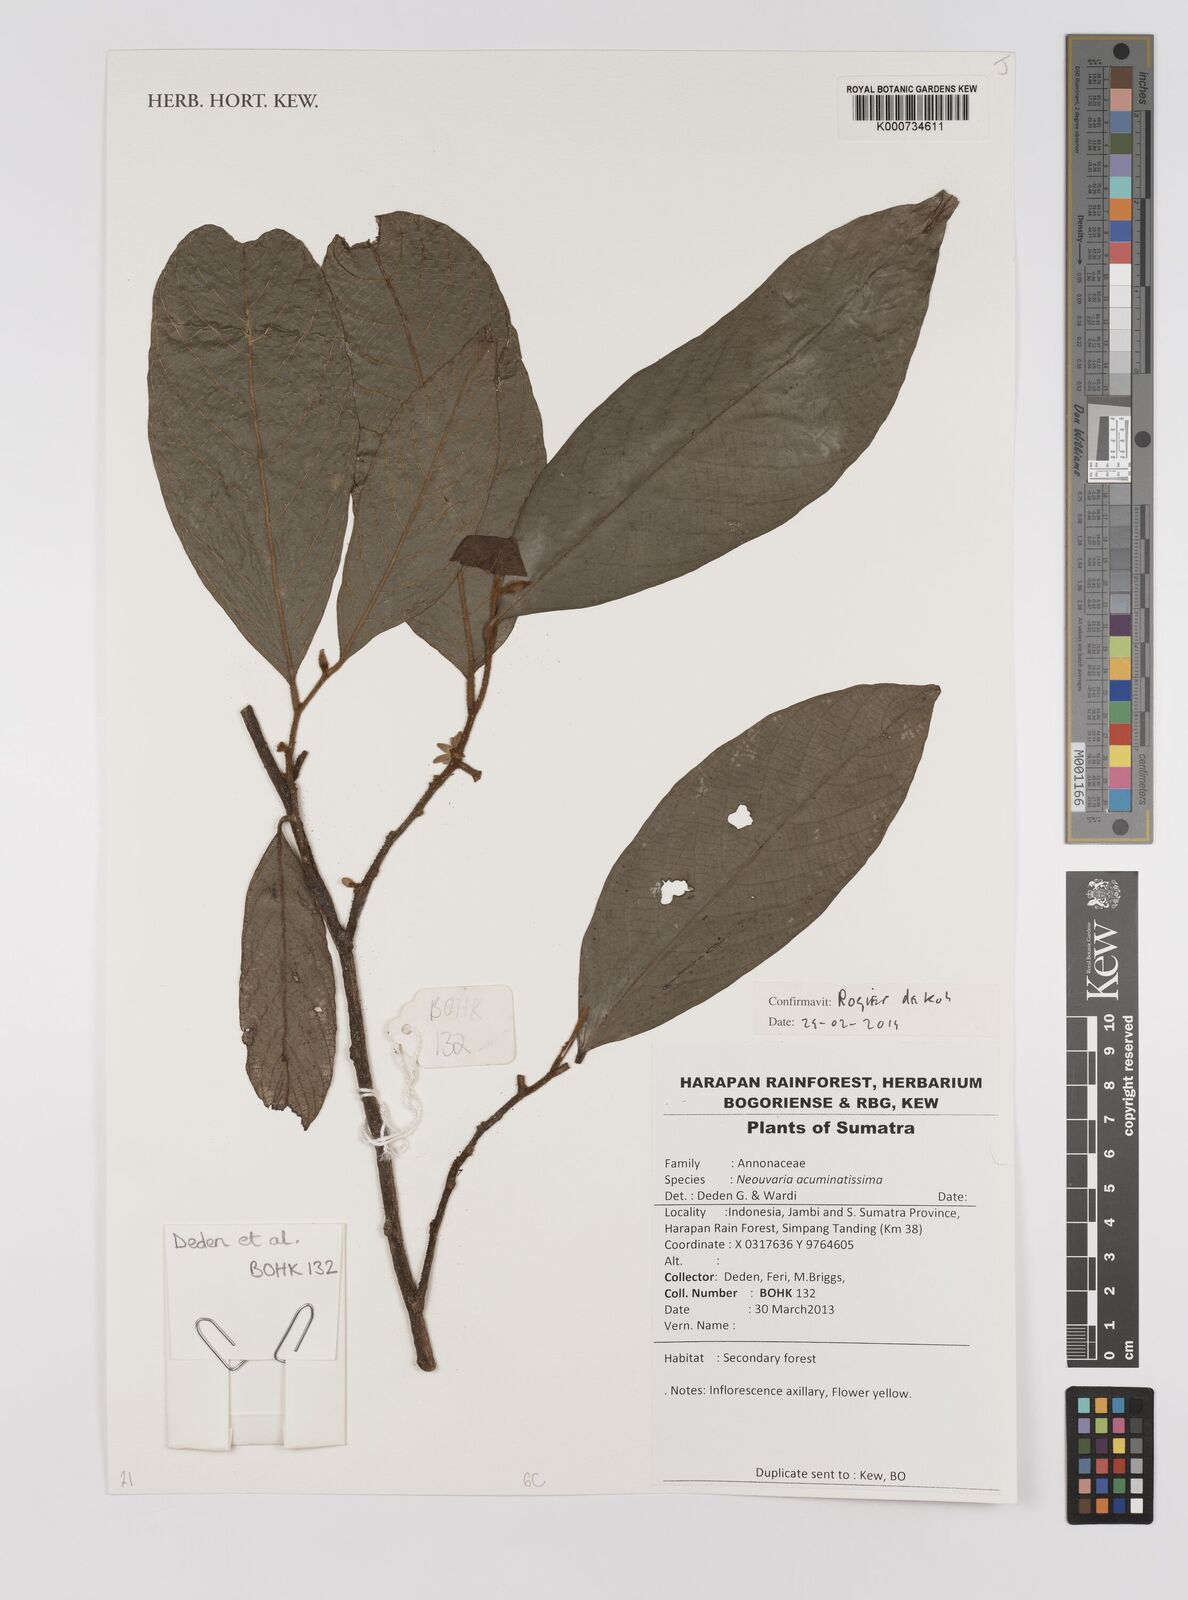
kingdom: Plantae
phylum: Tracheophyta
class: Magnoliopsida
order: Magnoliales
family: Annonaceae
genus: Neouvaria
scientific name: Neouvaria acuminatissima
